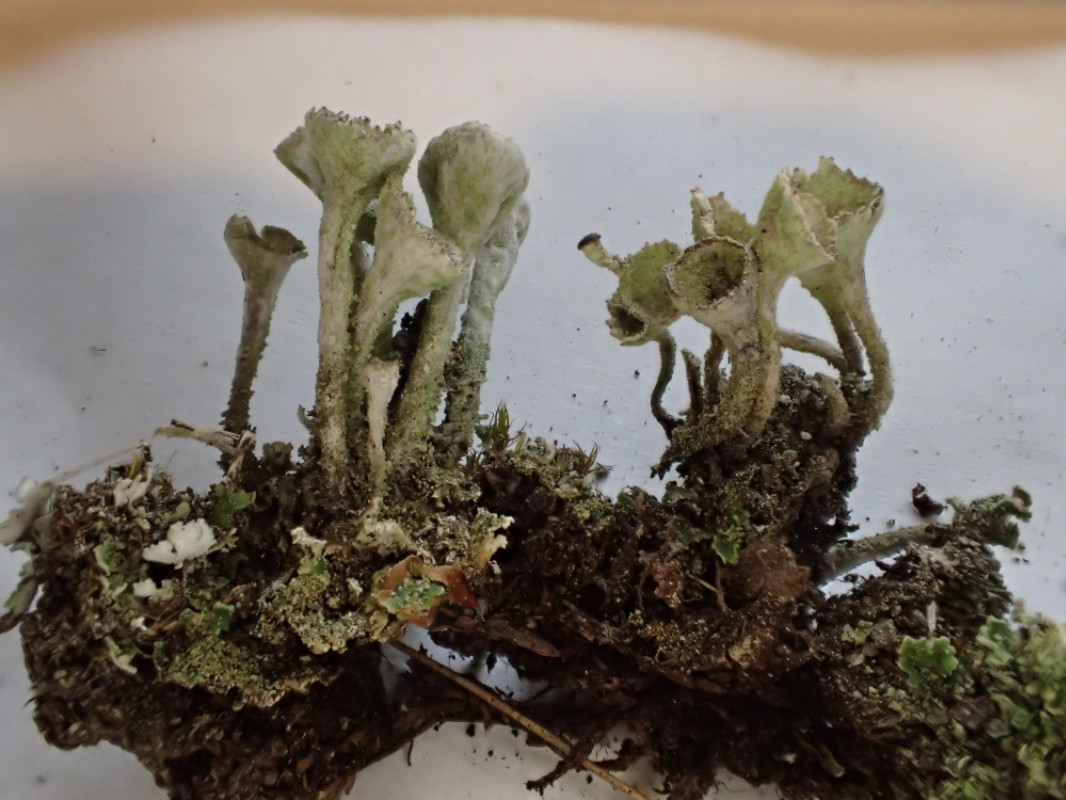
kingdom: Fungi
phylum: Ascomycota
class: Lecanoromycetes
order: Lecanorales
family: Cladoniaceae
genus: Cladonia
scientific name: Cladonia fimbriata
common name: bleggrøn bægerlav
